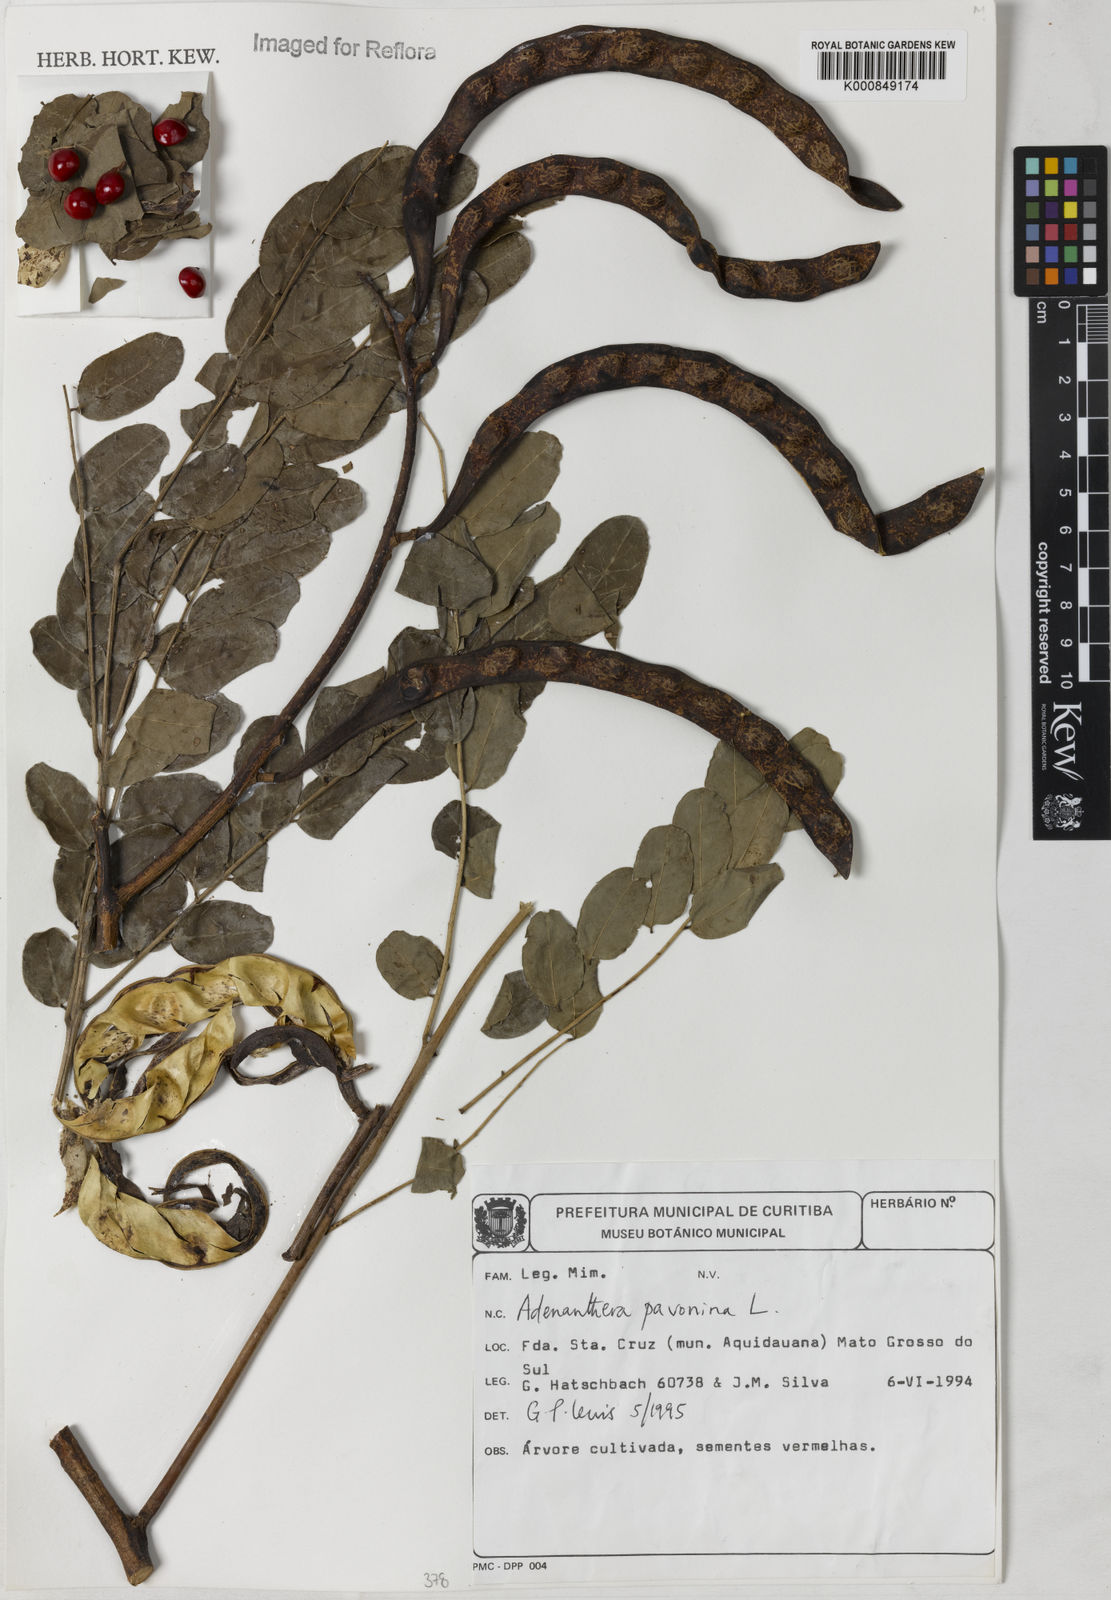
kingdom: Plantae
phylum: Tracheophyta
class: Magnoliopsida
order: Fabales
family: Fabaceae
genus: Adenanthera
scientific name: Adenanthera pavonina
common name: Red beadtree
